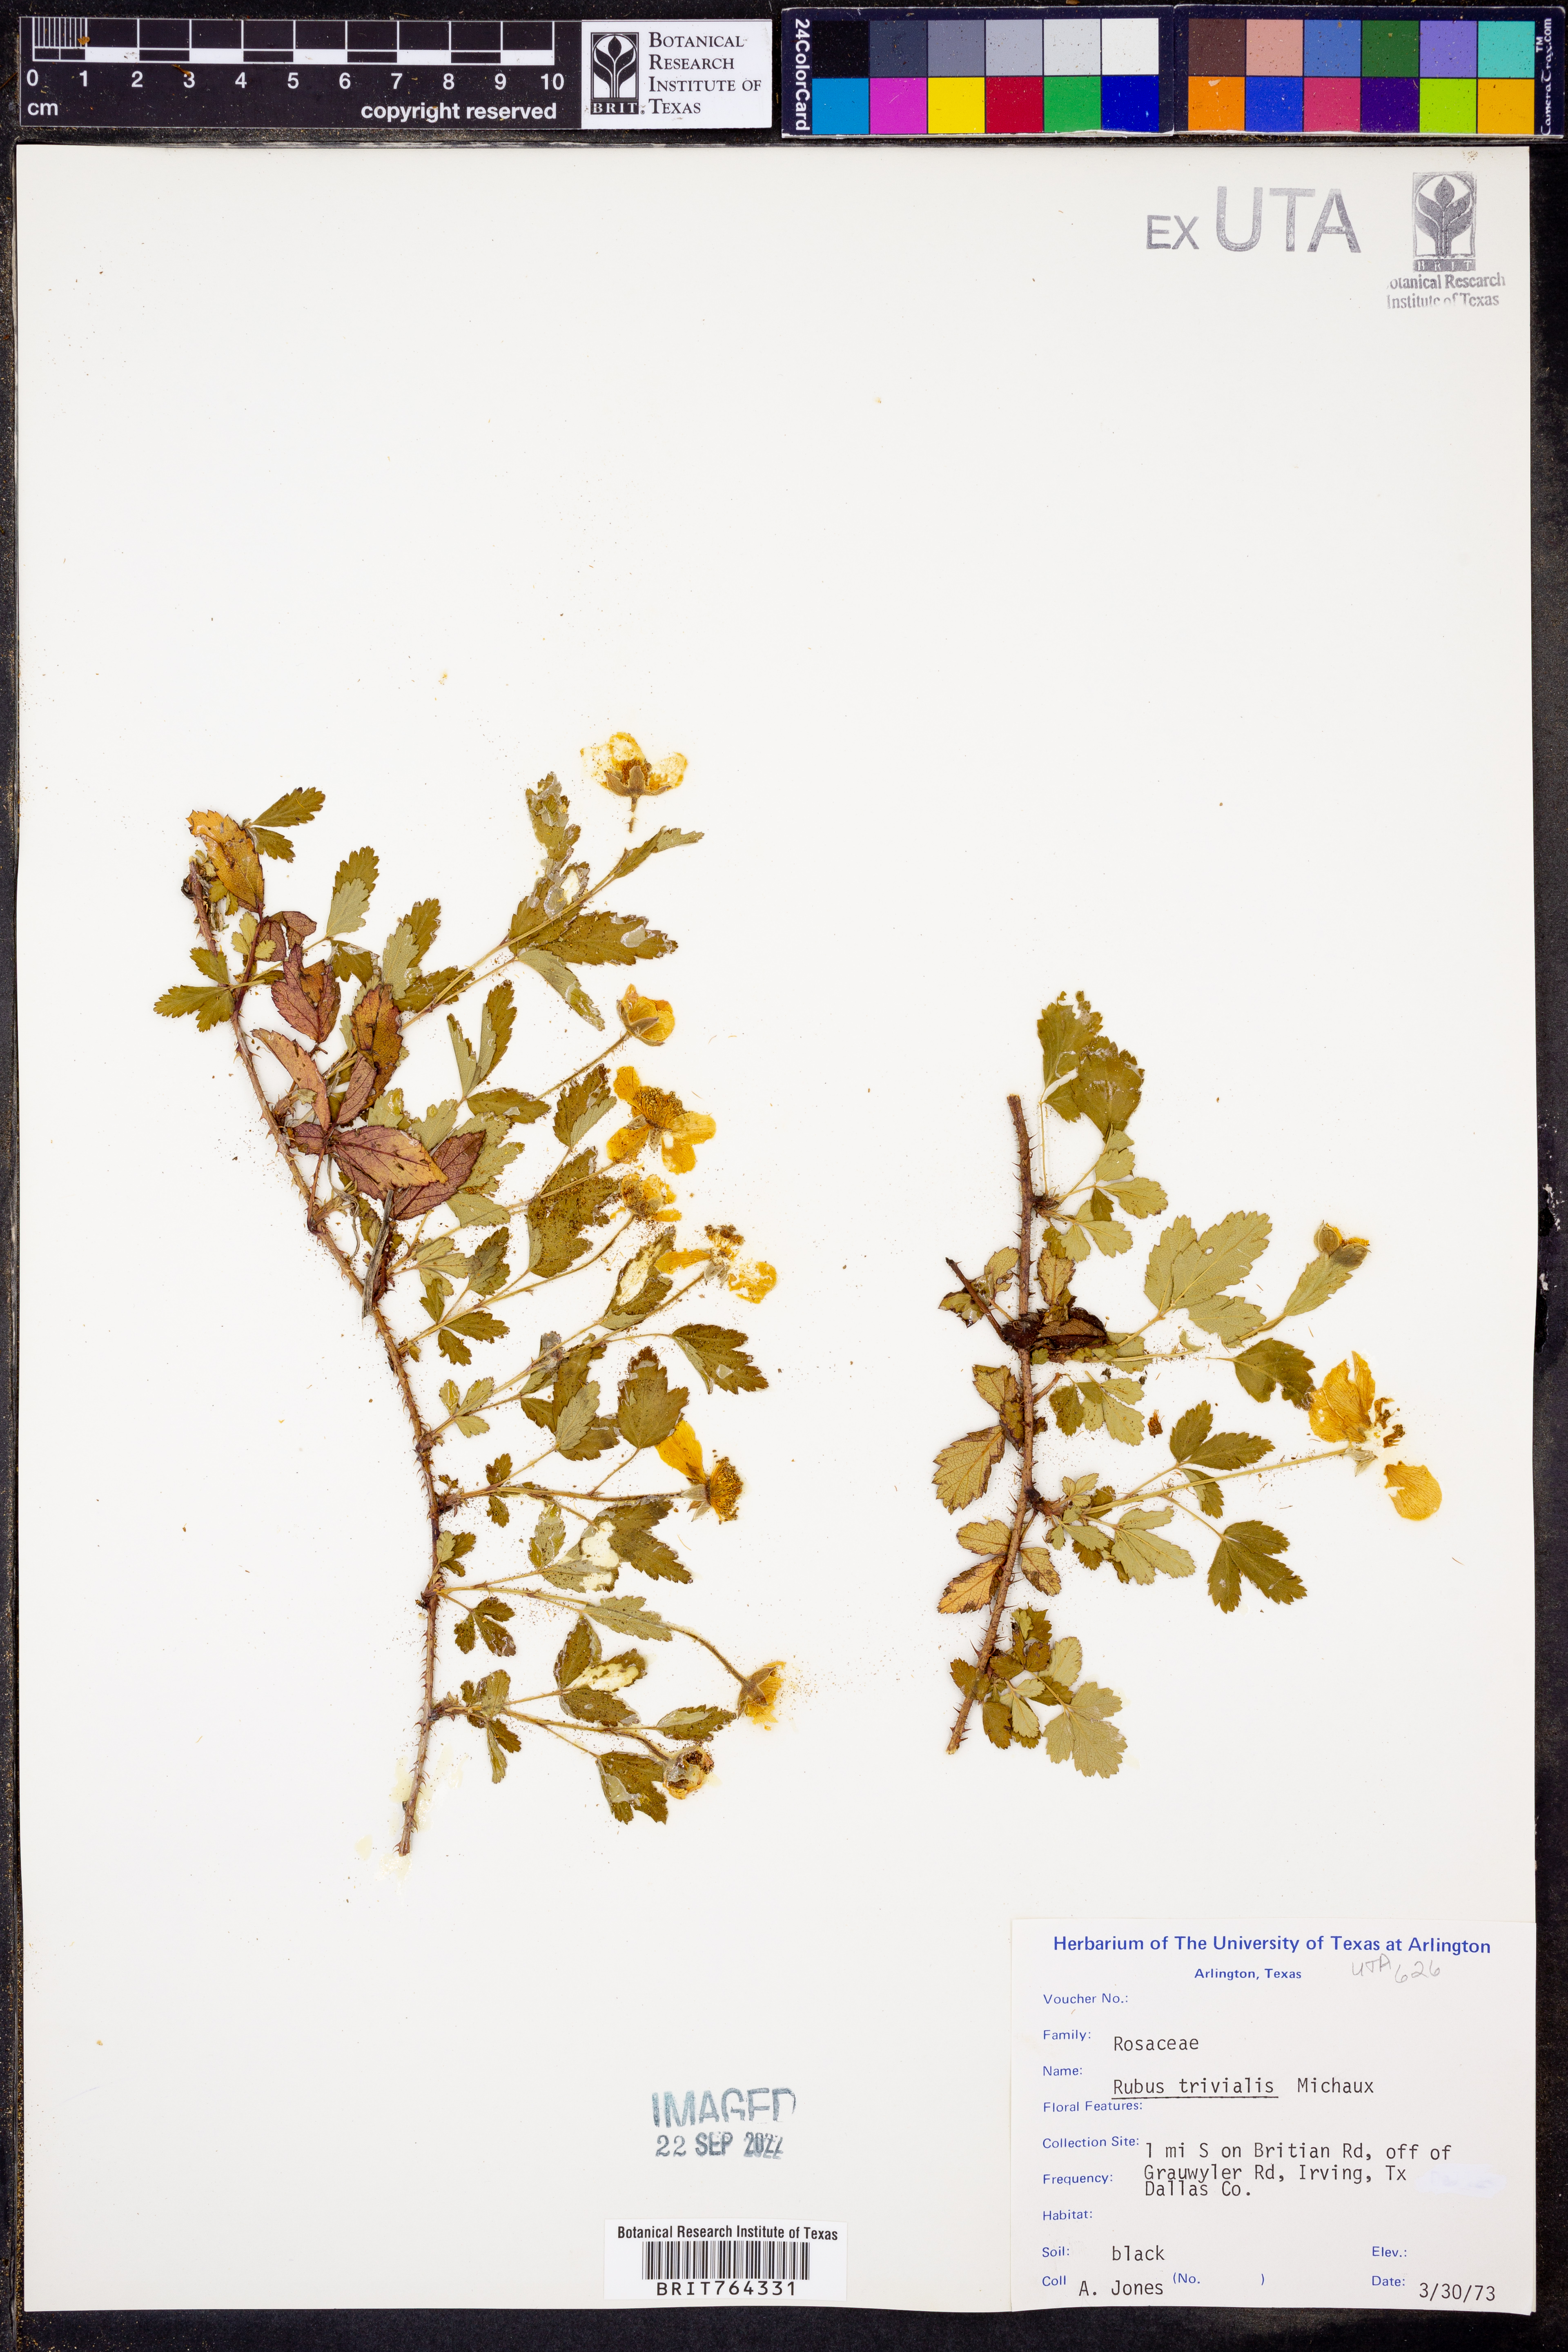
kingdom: Plantae
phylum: Tracheophyta
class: Magnoliopsida
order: Rosales
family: Rosaceae
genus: Rubus
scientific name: Rubus trivialis
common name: Southern dewberry
